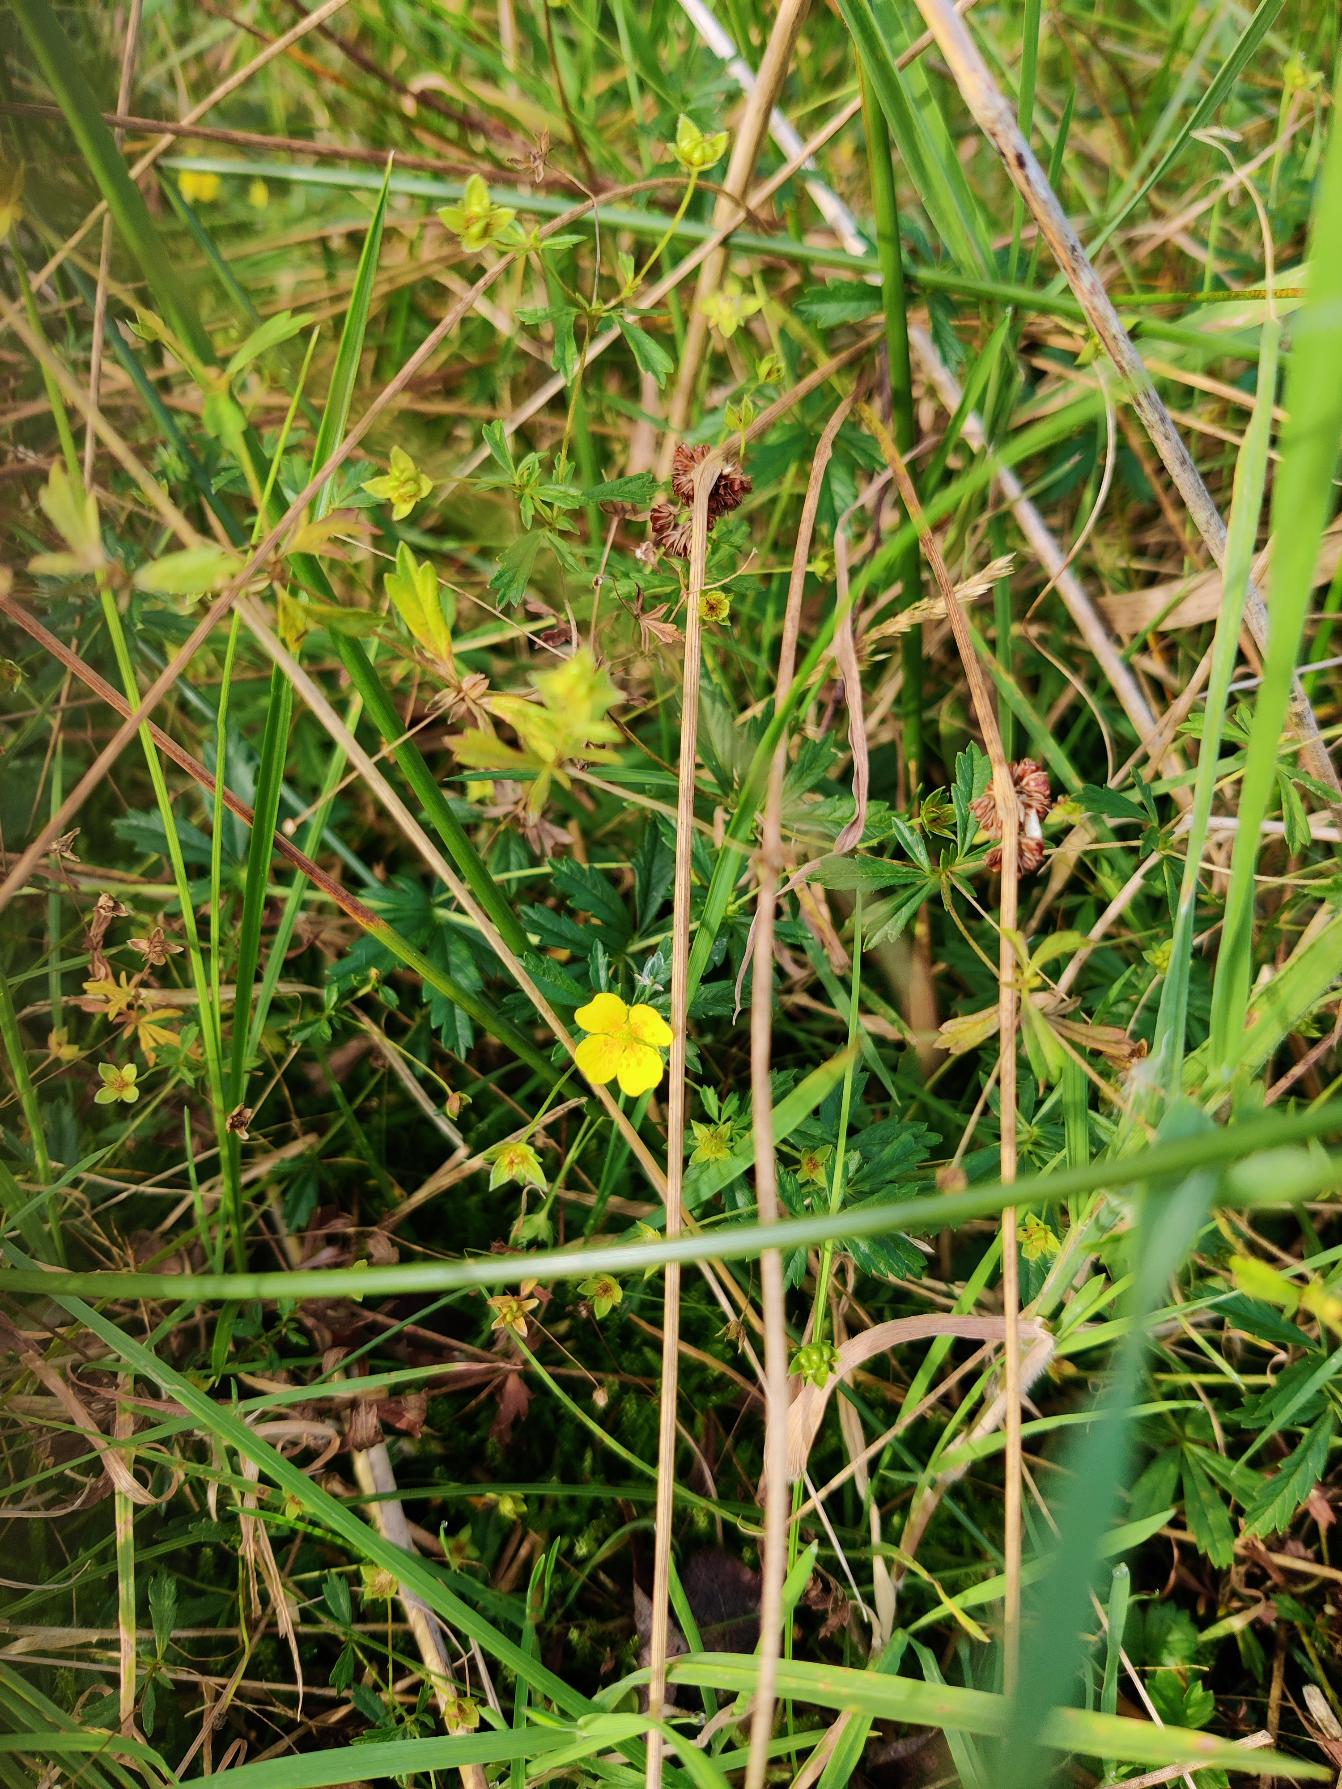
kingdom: Plantae
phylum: Tracheophyta
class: Magnoliopsida
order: Rosales
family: Rosaceae
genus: Potentilla
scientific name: Potentilla erecta
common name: Tormentil
